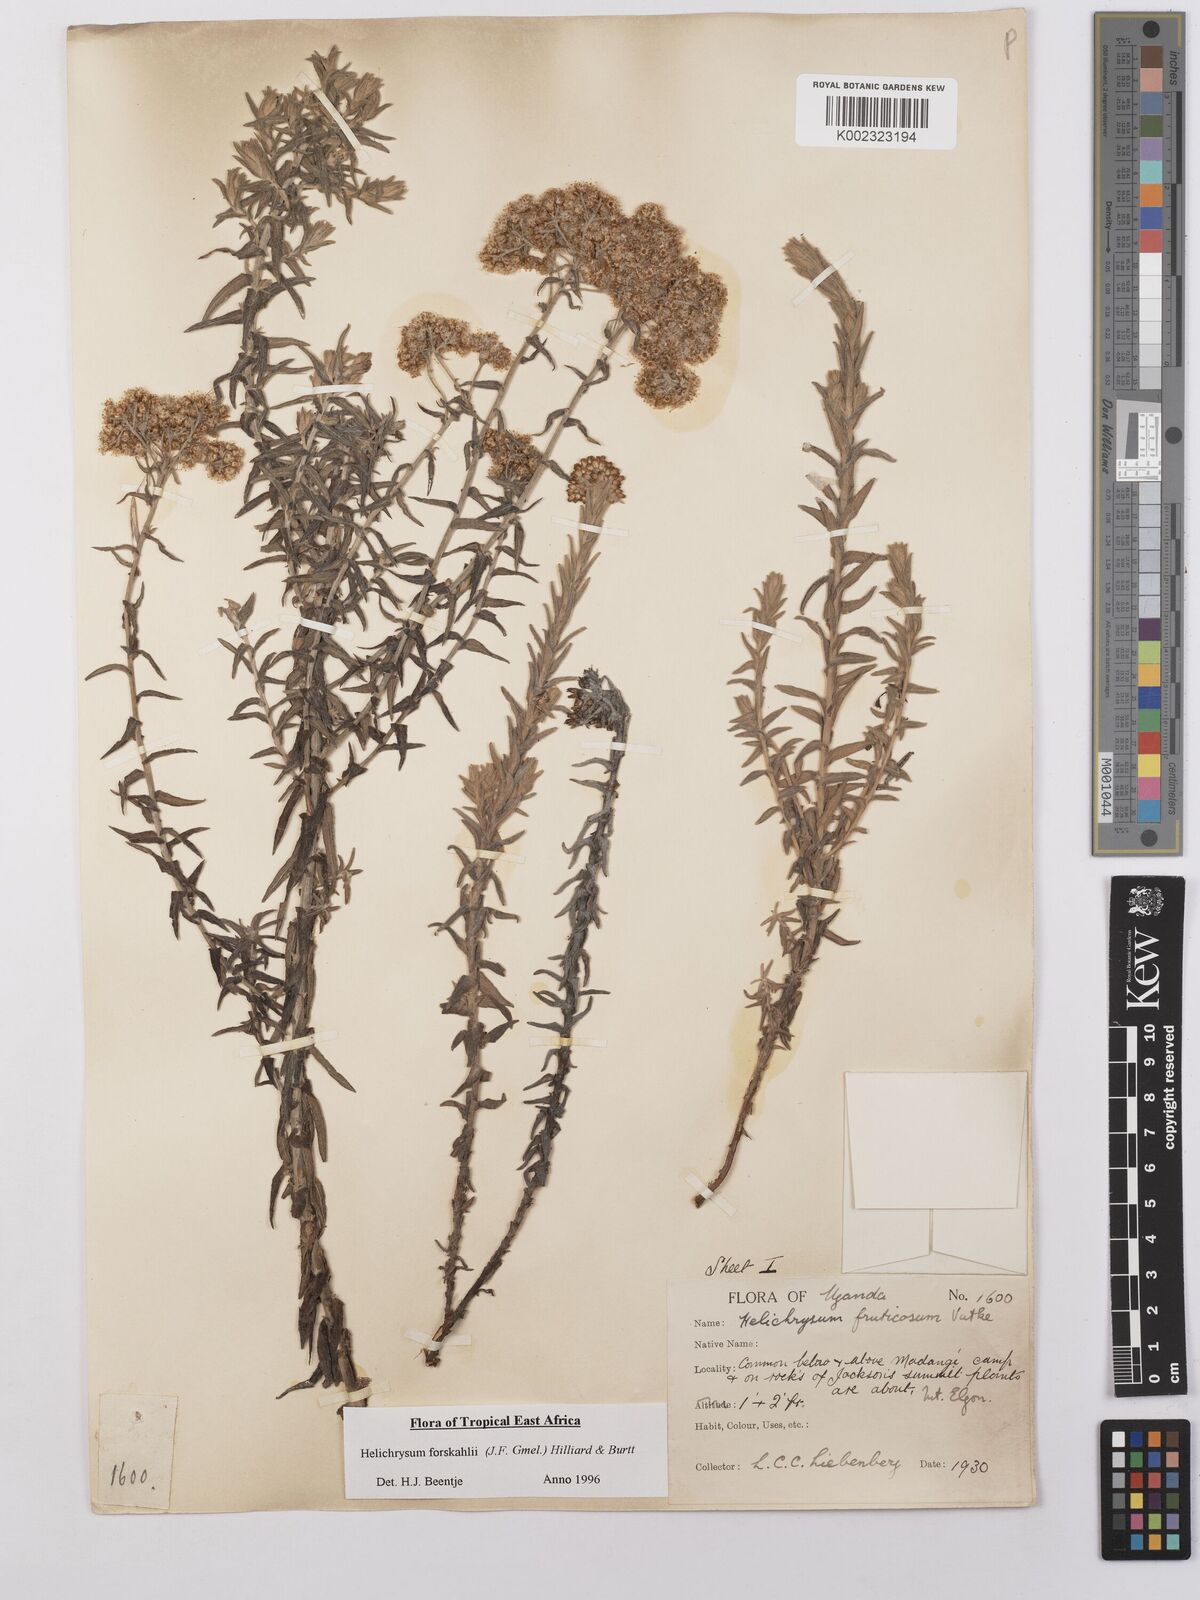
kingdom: Plantae
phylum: Tracheophyta
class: Magnoliopsida
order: Asterales
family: Asteraceae
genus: Helichrysum
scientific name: Helichrysum forskahlii
